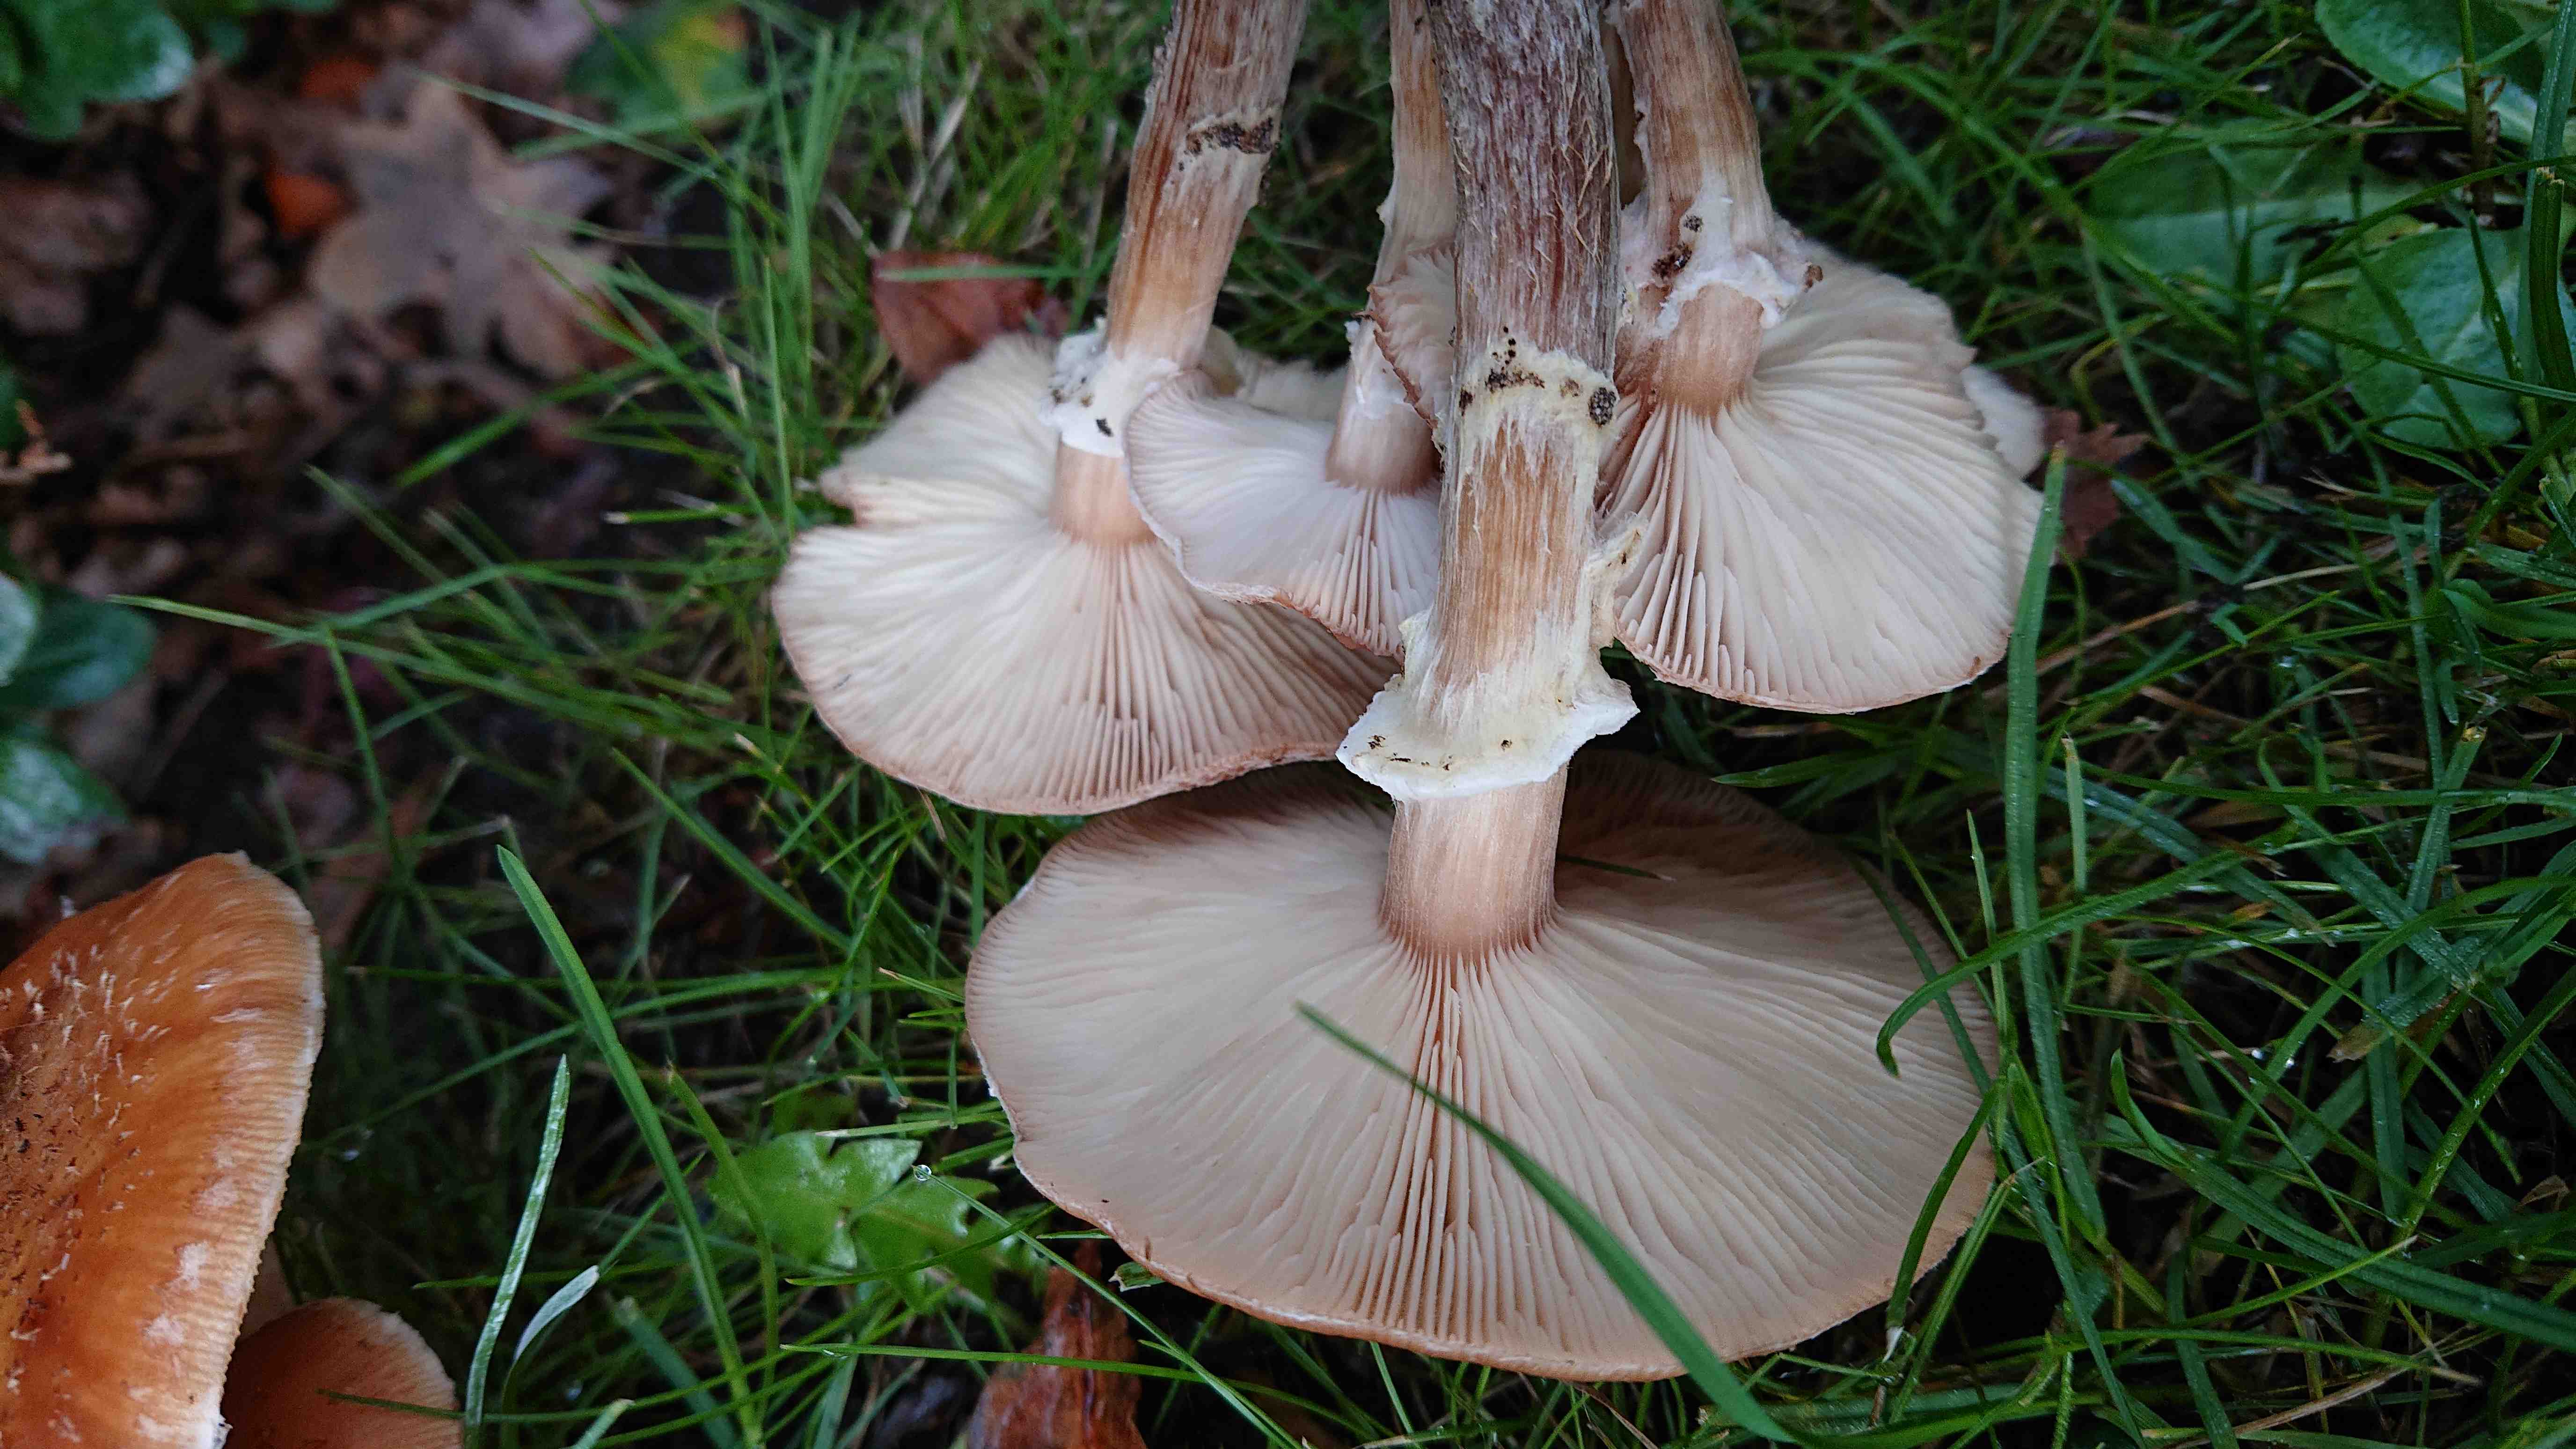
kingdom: Fungi
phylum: Basidiomycota
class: Agaricomycetes
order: Agaricales
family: Physalacriaceae
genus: Armillaria
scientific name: Armillaria ostoyae
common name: mørk honningsvamp
